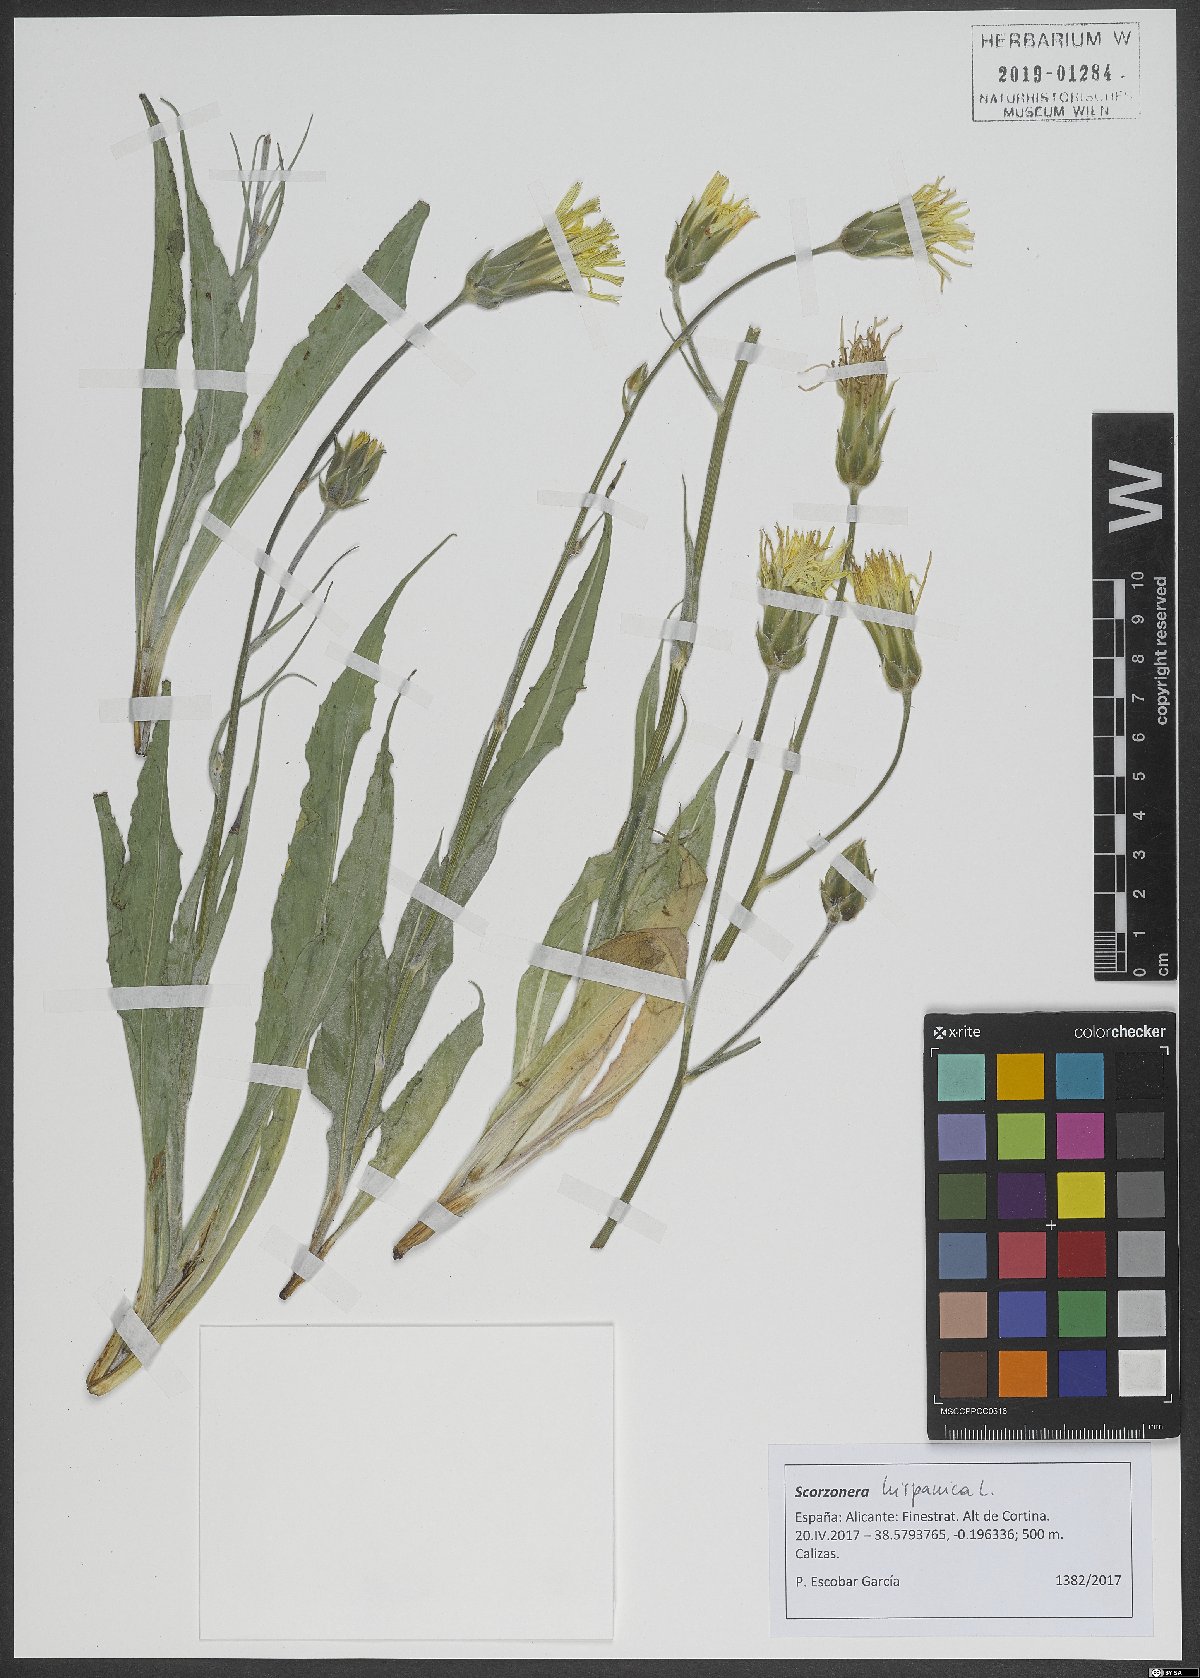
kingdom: Plantae
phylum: Tracheophyta
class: Magnoliopsida
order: Asterales
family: Asteraceae
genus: Pseudopodospermum
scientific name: Pseudopodospermum hispanicum
